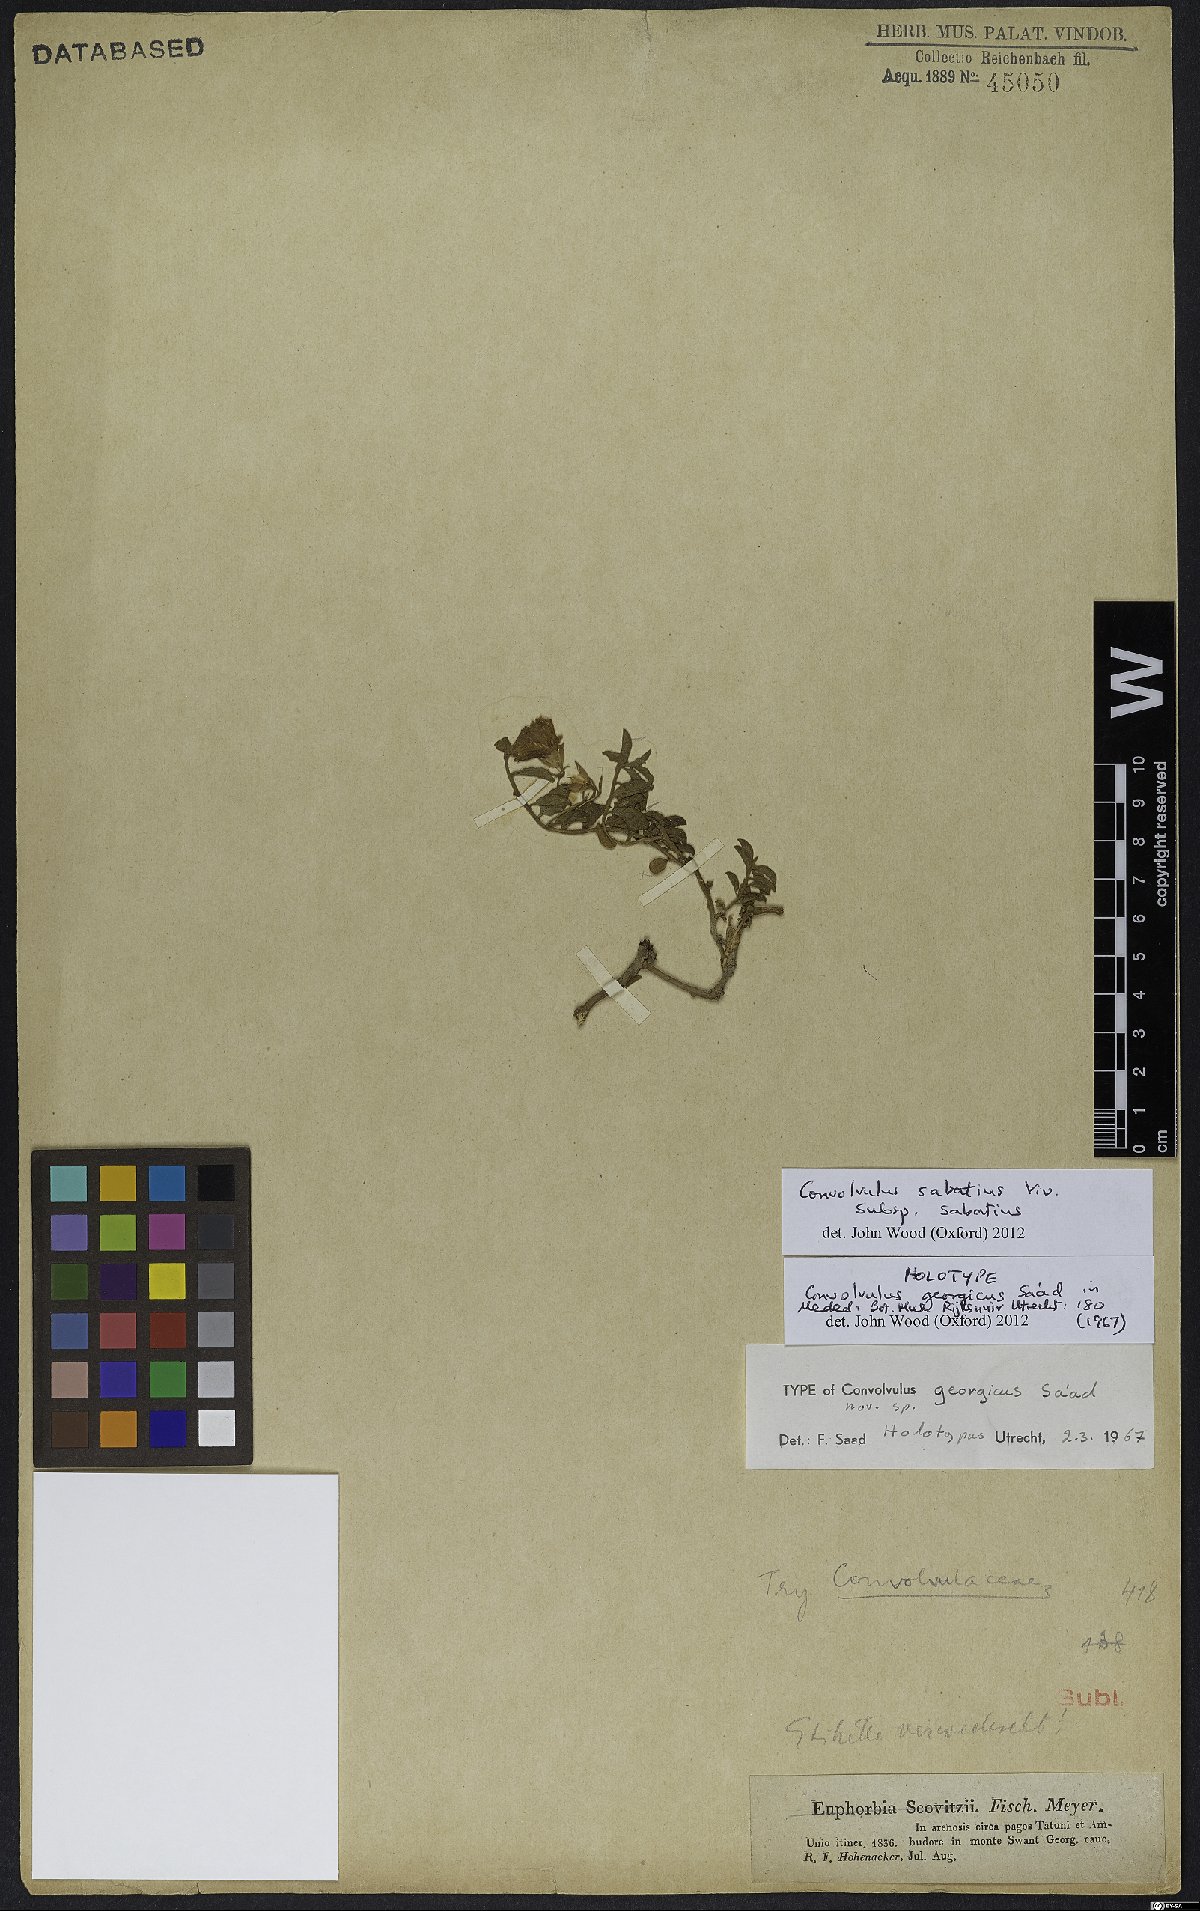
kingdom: Plantae
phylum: Tracheophyta
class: Magnoliopsida
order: Solanales
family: Convolvulaceae
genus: Convolvulus
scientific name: Convolvulus sabatius
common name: Ground blue-convolvulus
